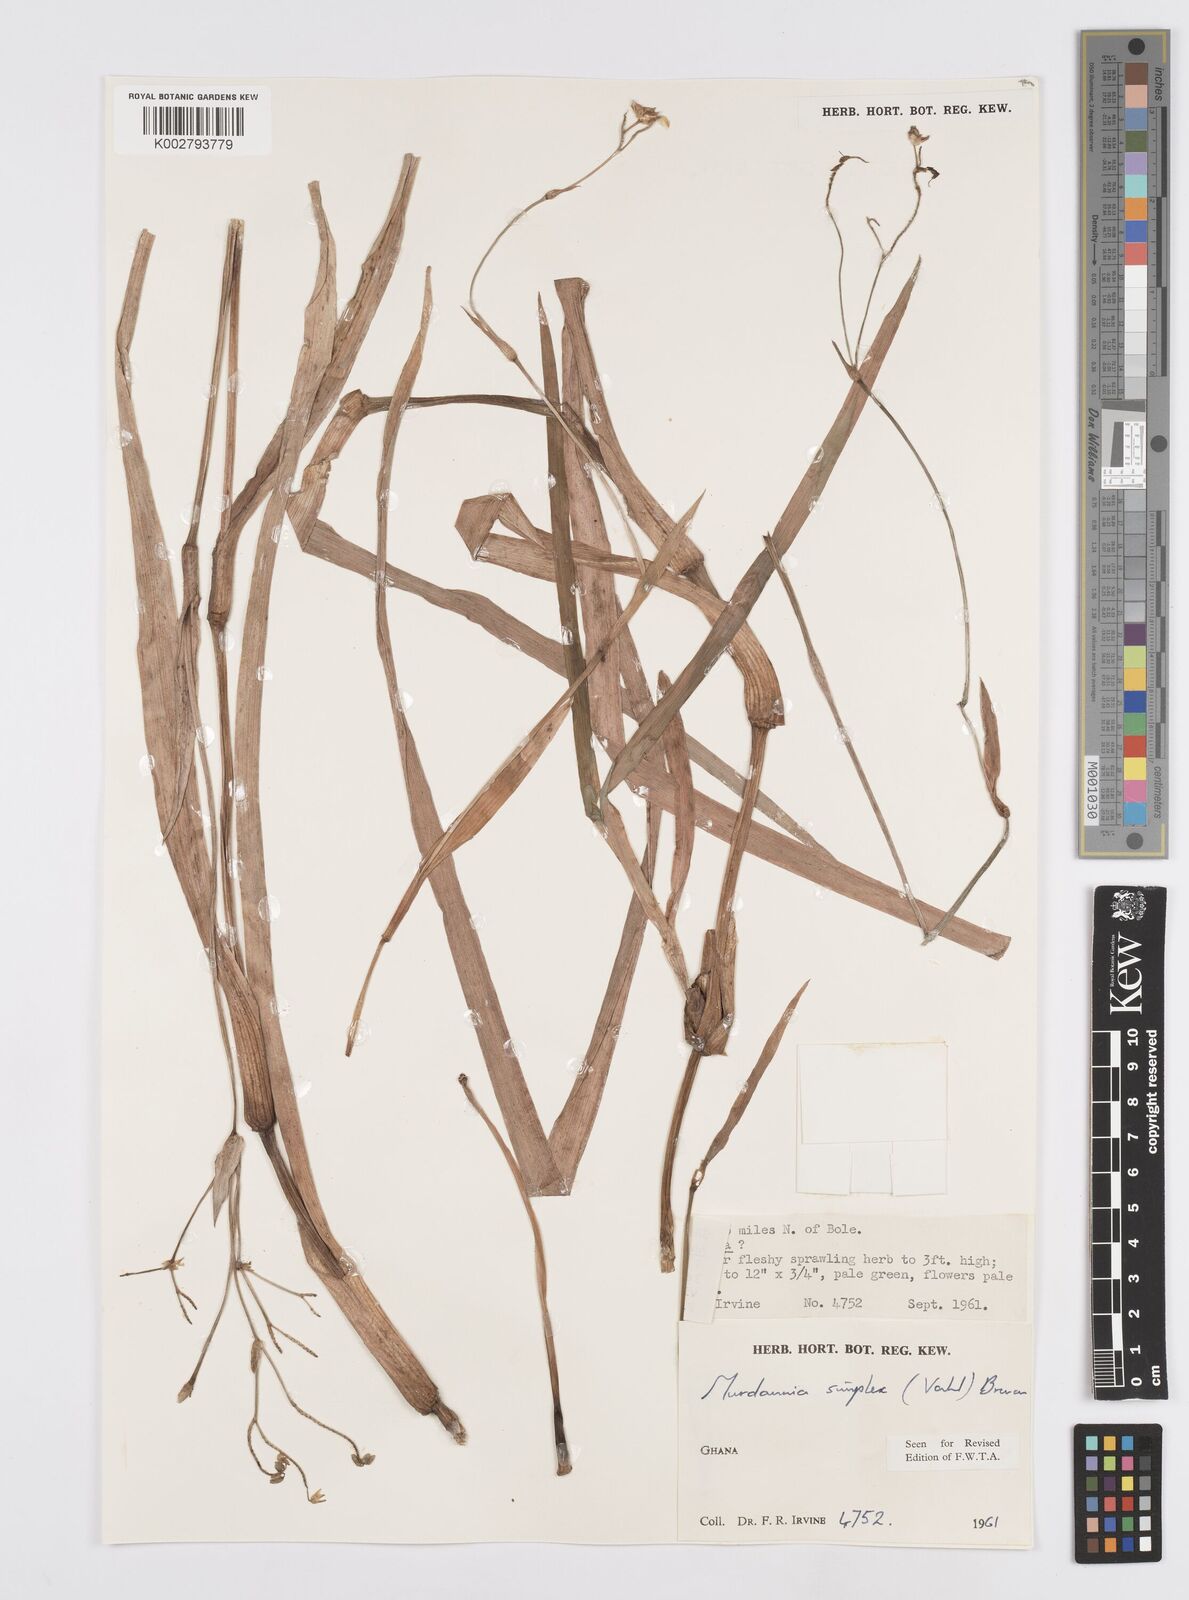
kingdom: Plantae
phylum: Tracheophyta
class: Liliopsida
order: Commelinales
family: Commelinaceae
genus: Murdannia
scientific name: Murdannia simplex
